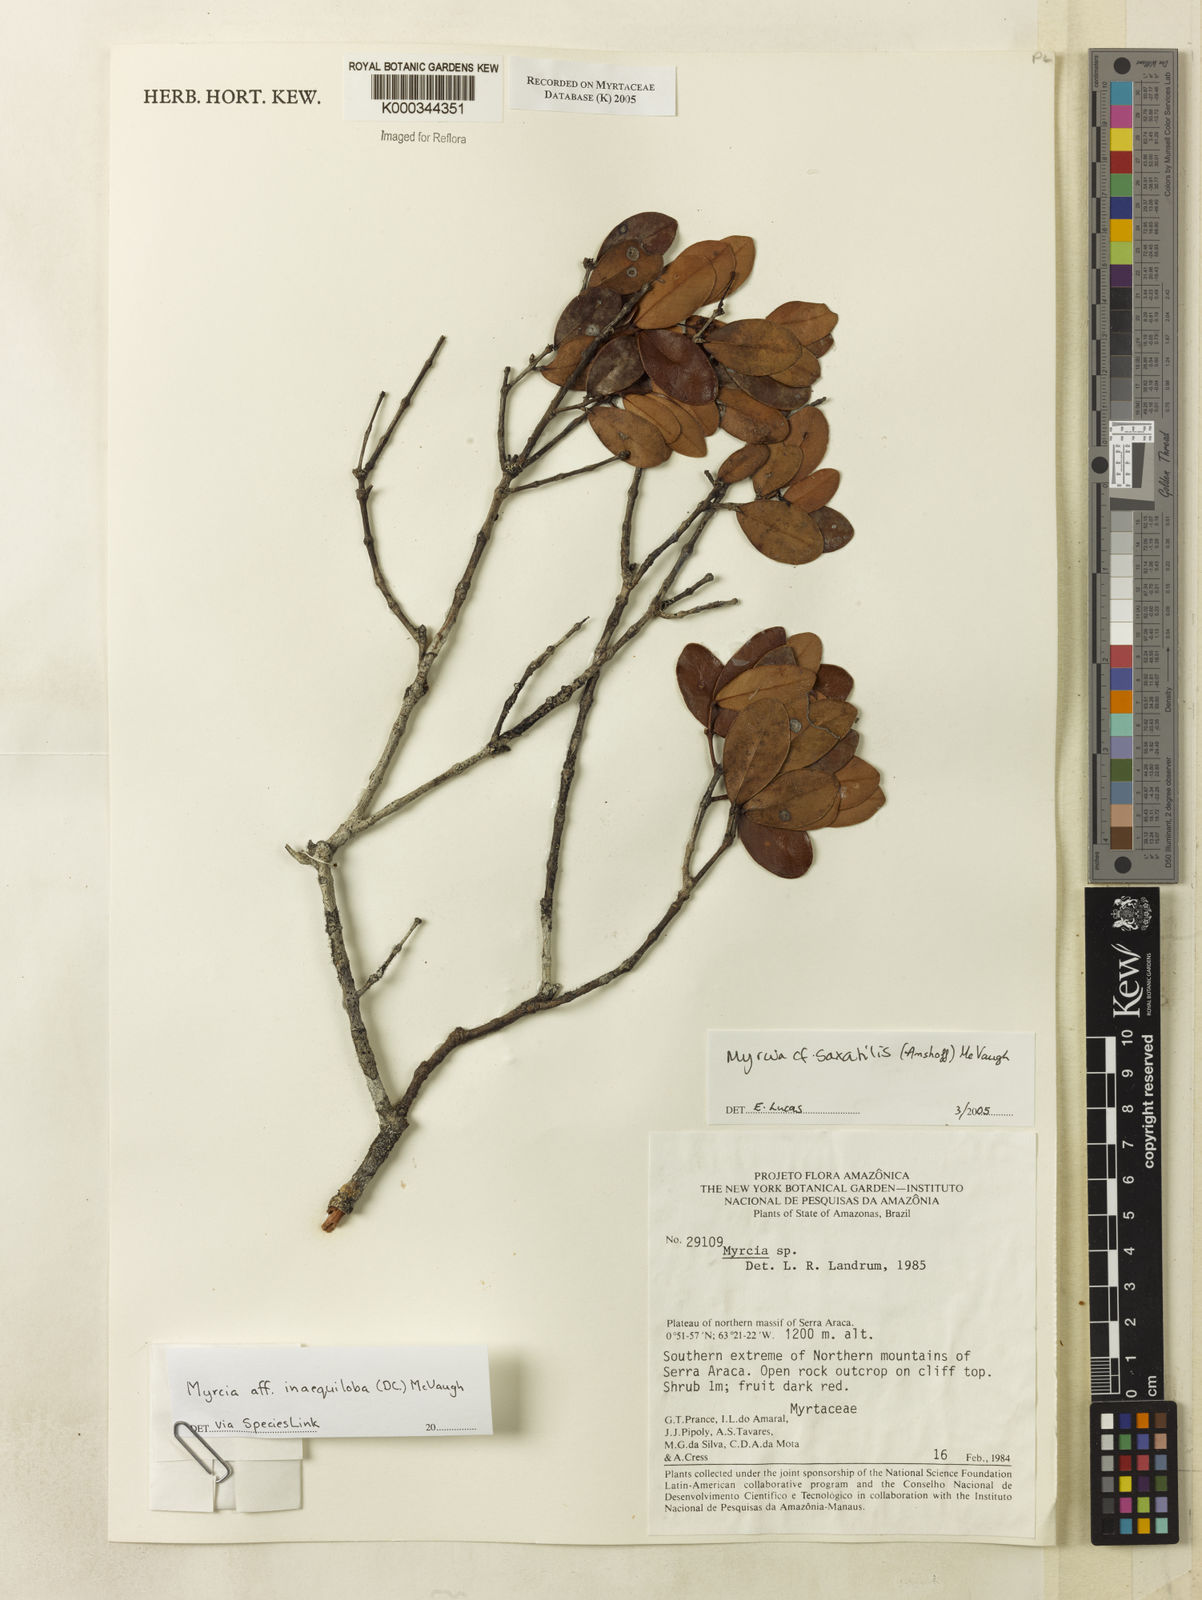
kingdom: Plantae
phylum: Tracheophyta
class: Magnoliopsida
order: Myrtales
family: Myrtaceae
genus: Myrcia
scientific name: Myrcia saxatilis
